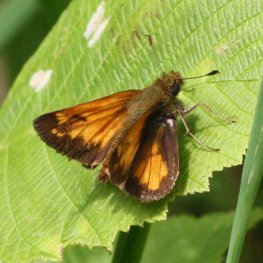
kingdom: Animalia
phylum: Arthropoda
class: Insecta
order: Lepidoptera
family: Hesperiidae
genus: Lon
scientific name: Lon hobomok
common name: Hobomok Skipper
